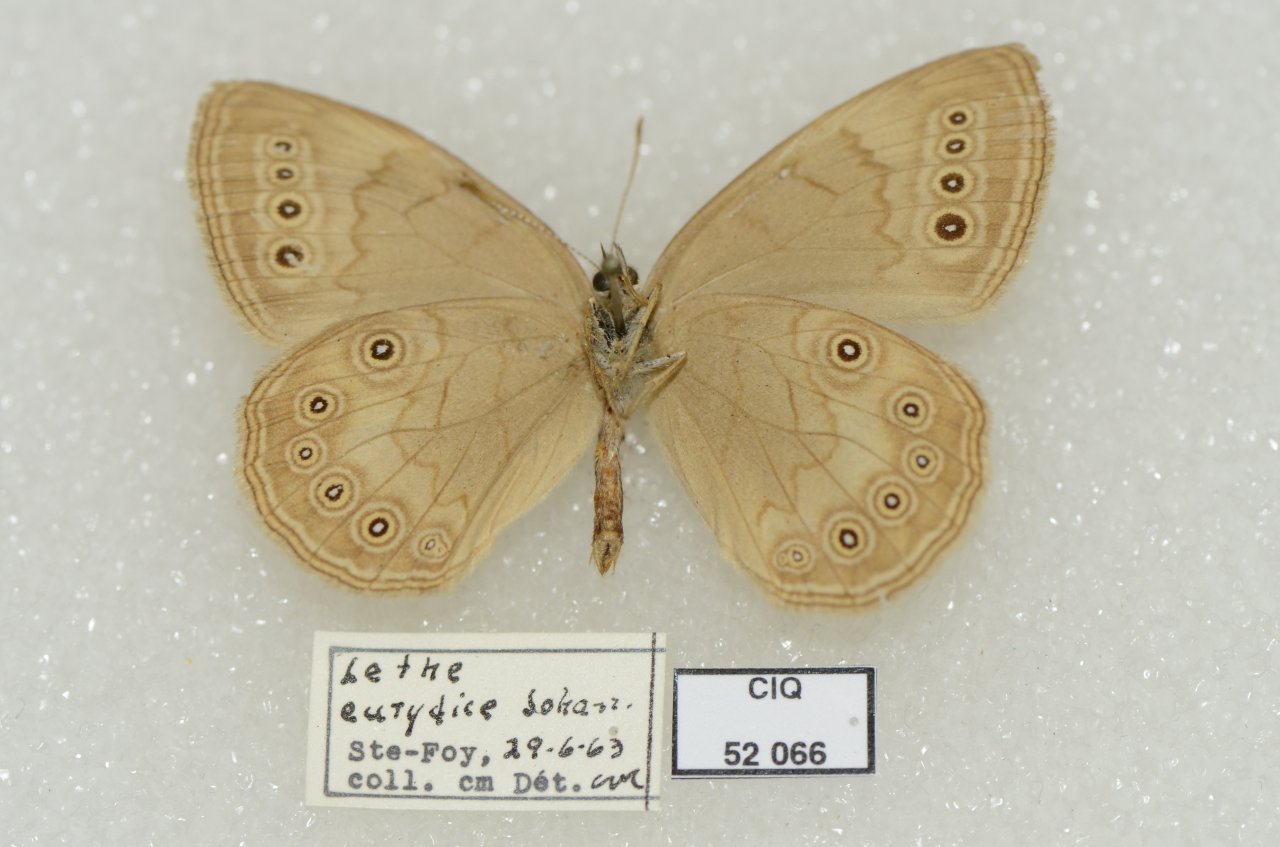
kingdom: Animalia
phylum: Arthropoda
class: Insecta
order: Lepidoptera
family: Nymphalidae
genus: Lethe
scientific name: Lethe eurydice
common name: Eyed Brown
